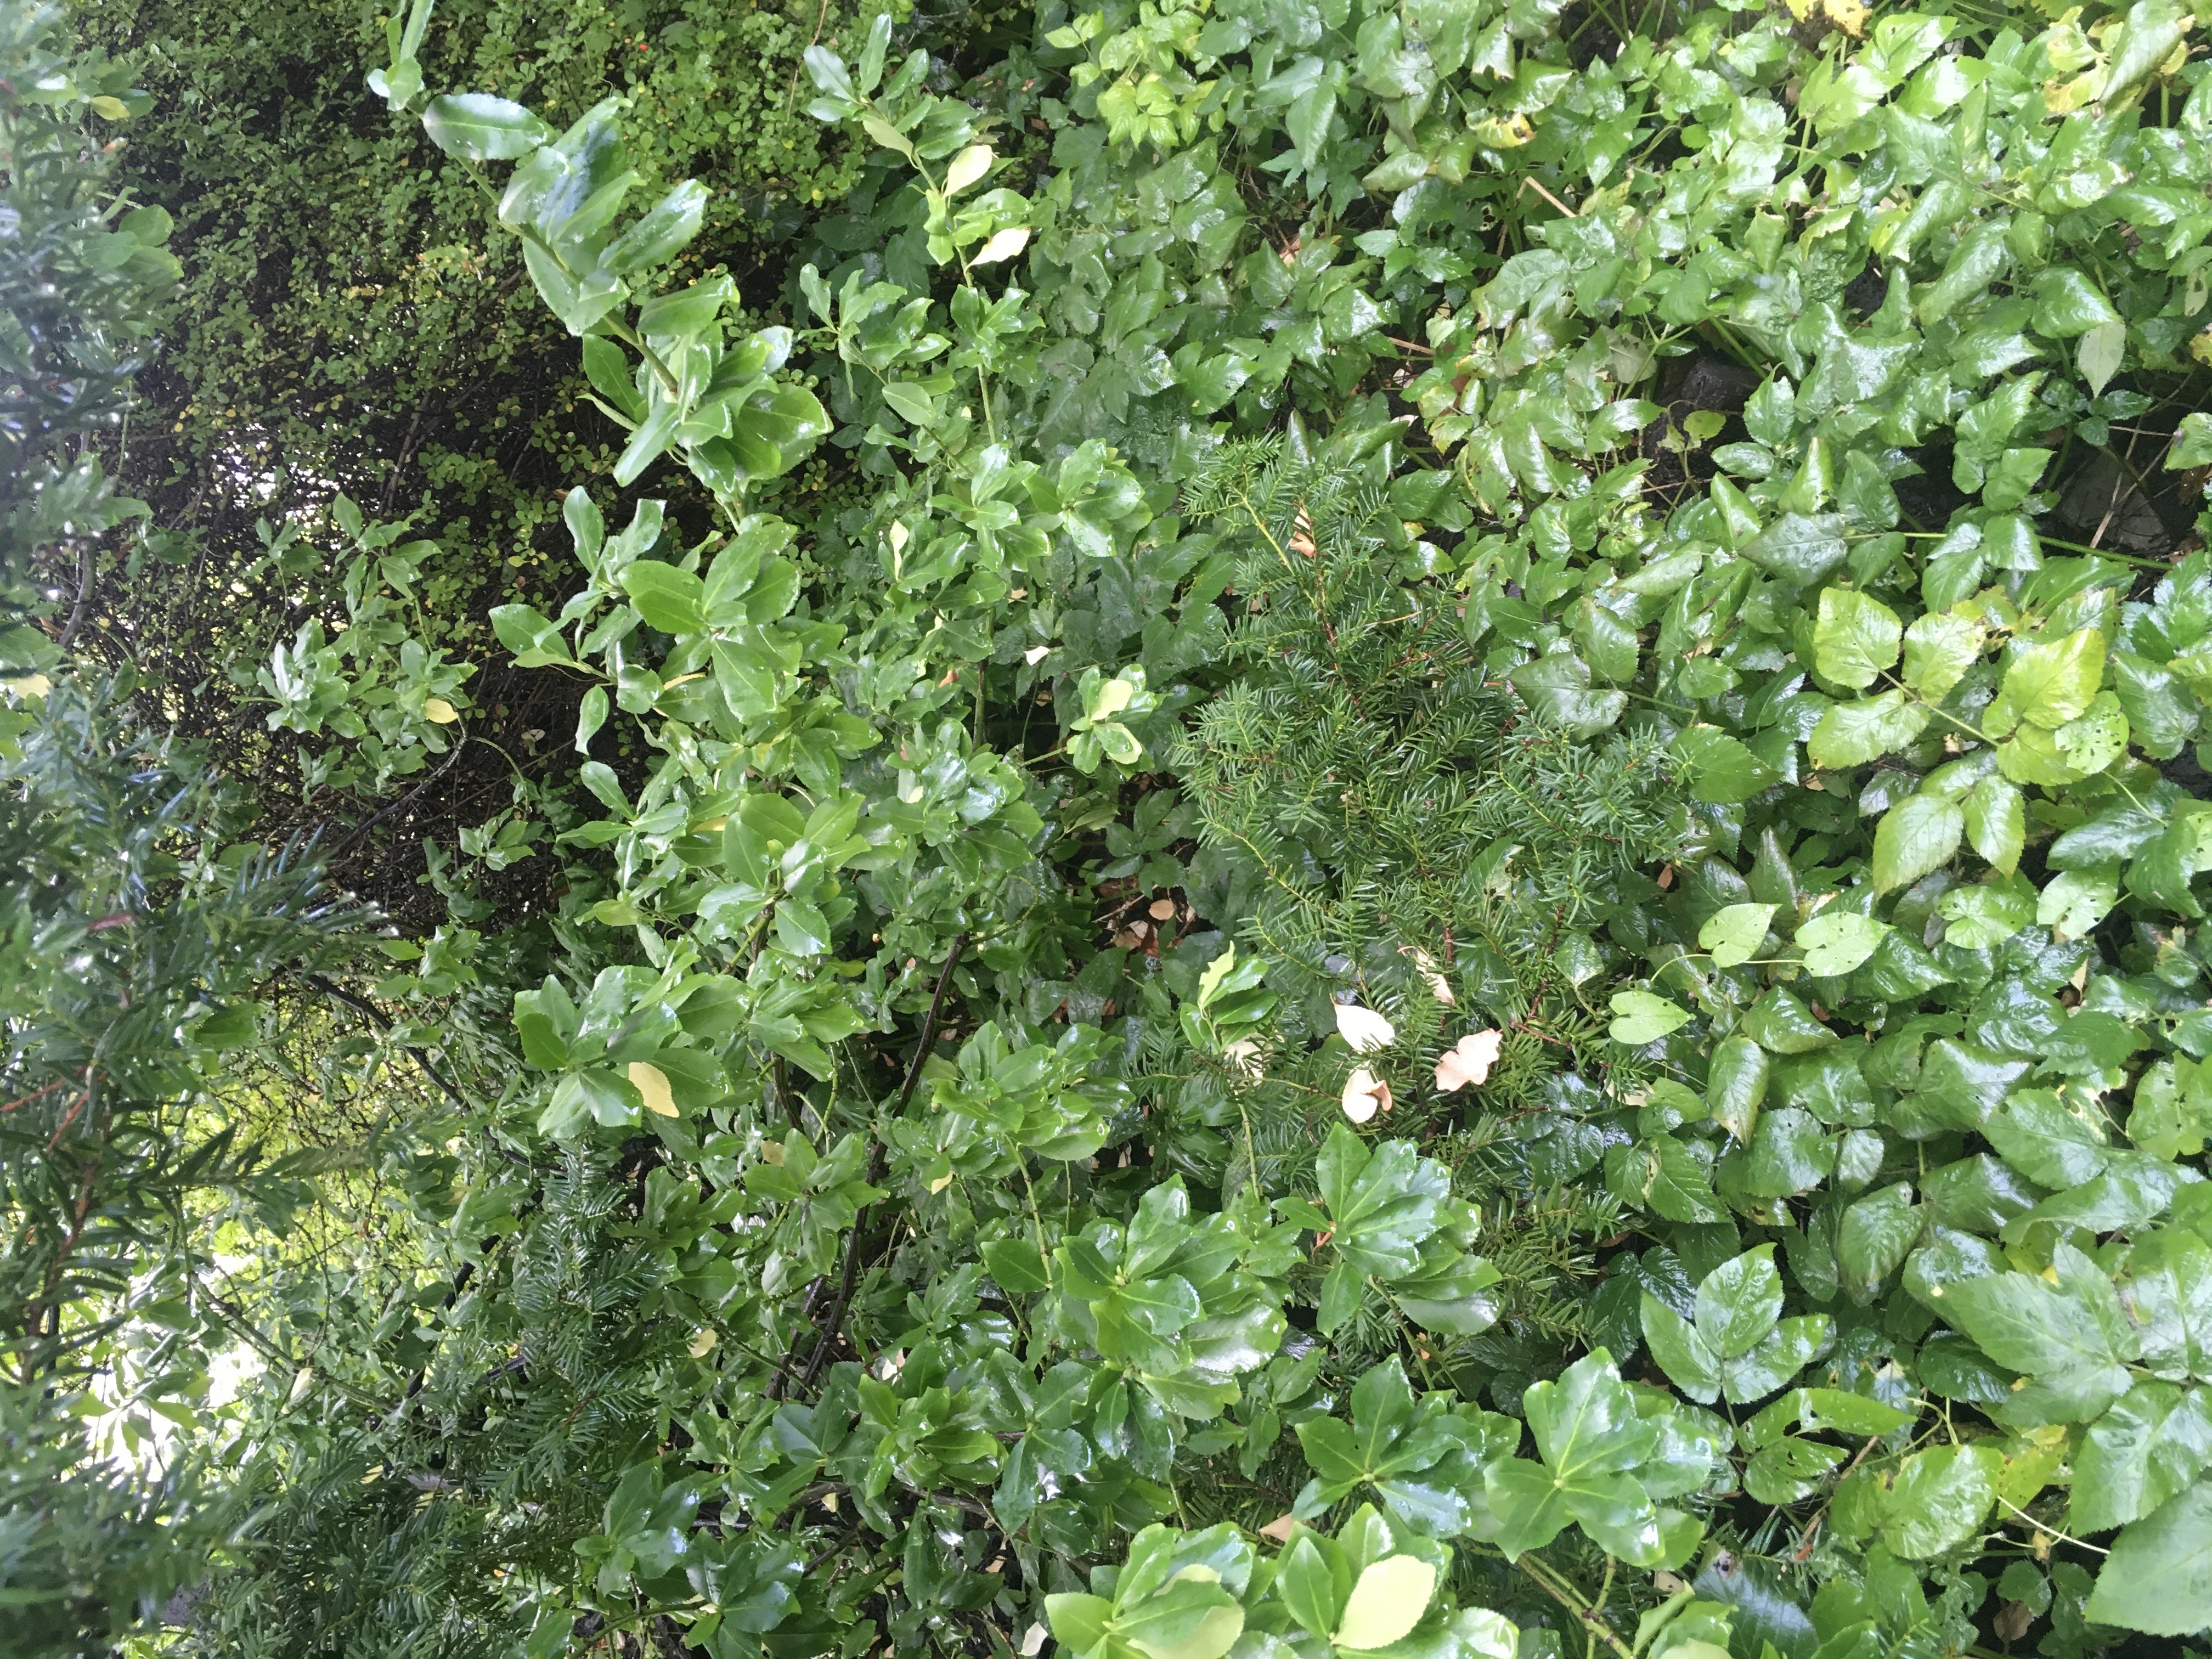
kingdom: Plantae
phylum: Tracheophyta
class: Pinopsida
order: Pinales
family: Taxaceae
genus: Taxus
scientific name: Taxus media
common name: hybridbarlind
